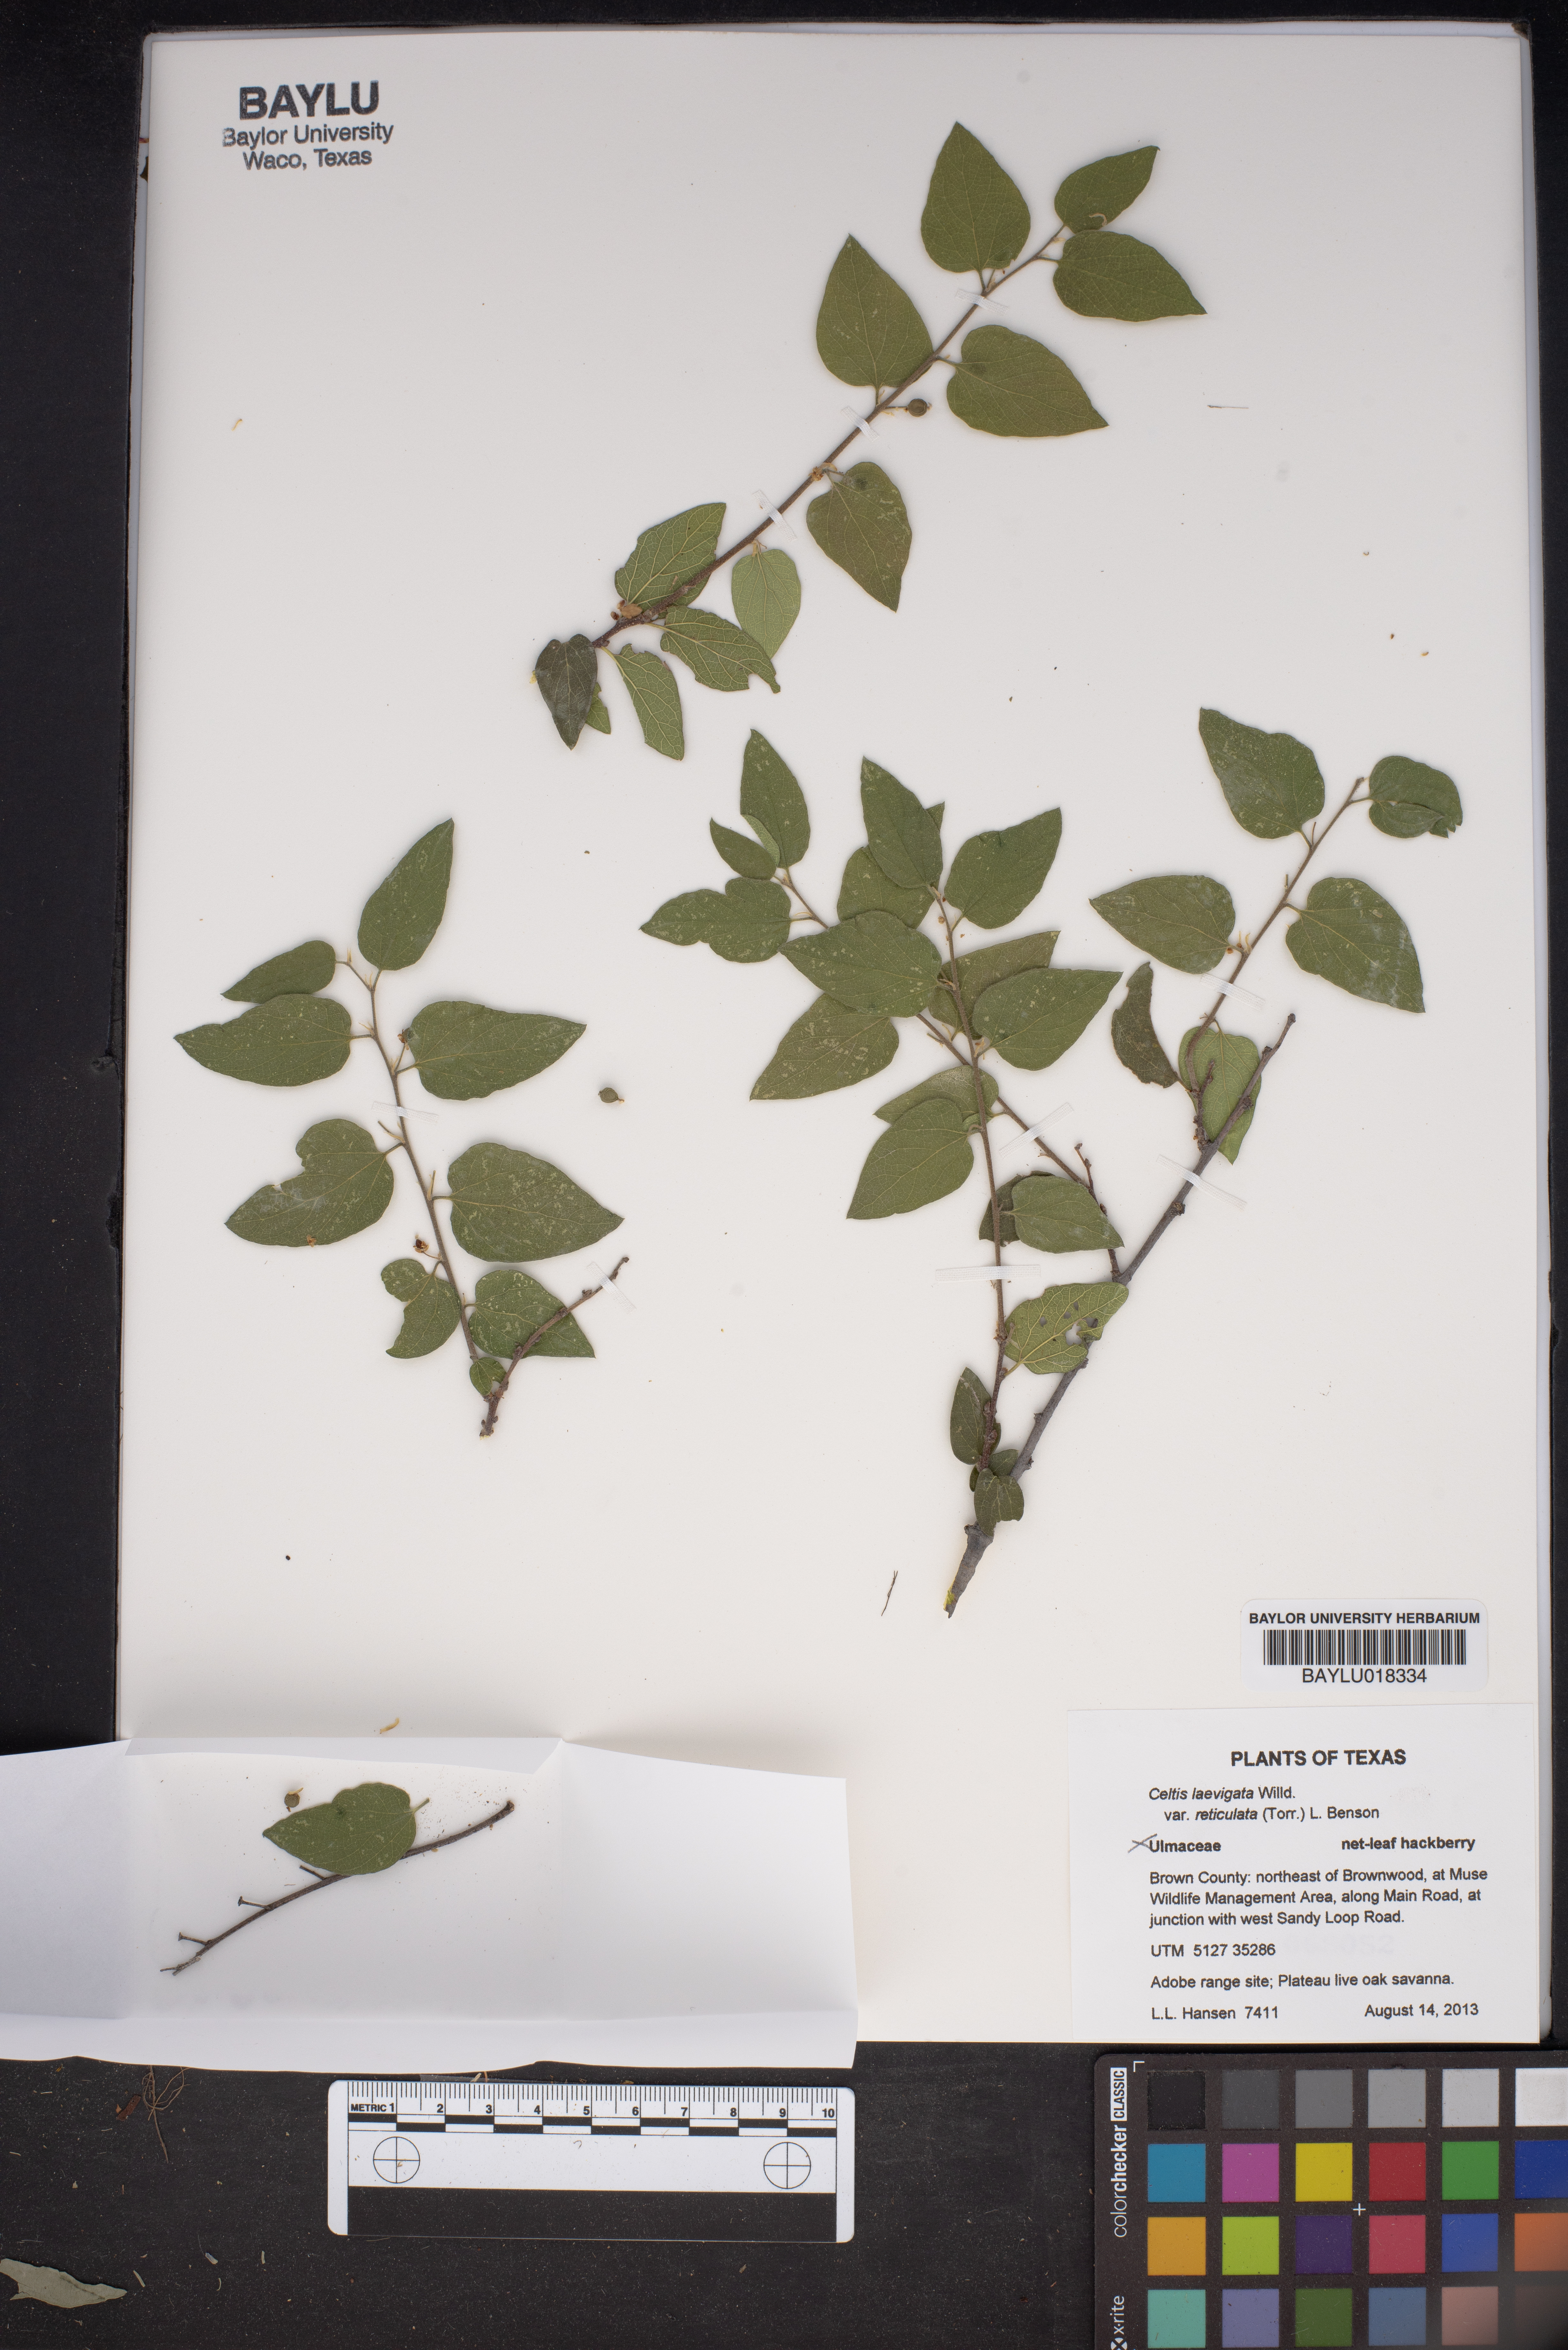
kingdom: Plantae
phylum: Tracheophyta
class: Magnoliopsida
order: Rosales
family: Cannabaceae
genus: Celtis
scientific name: Celtis reticulata
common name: Netleaf hackberry
